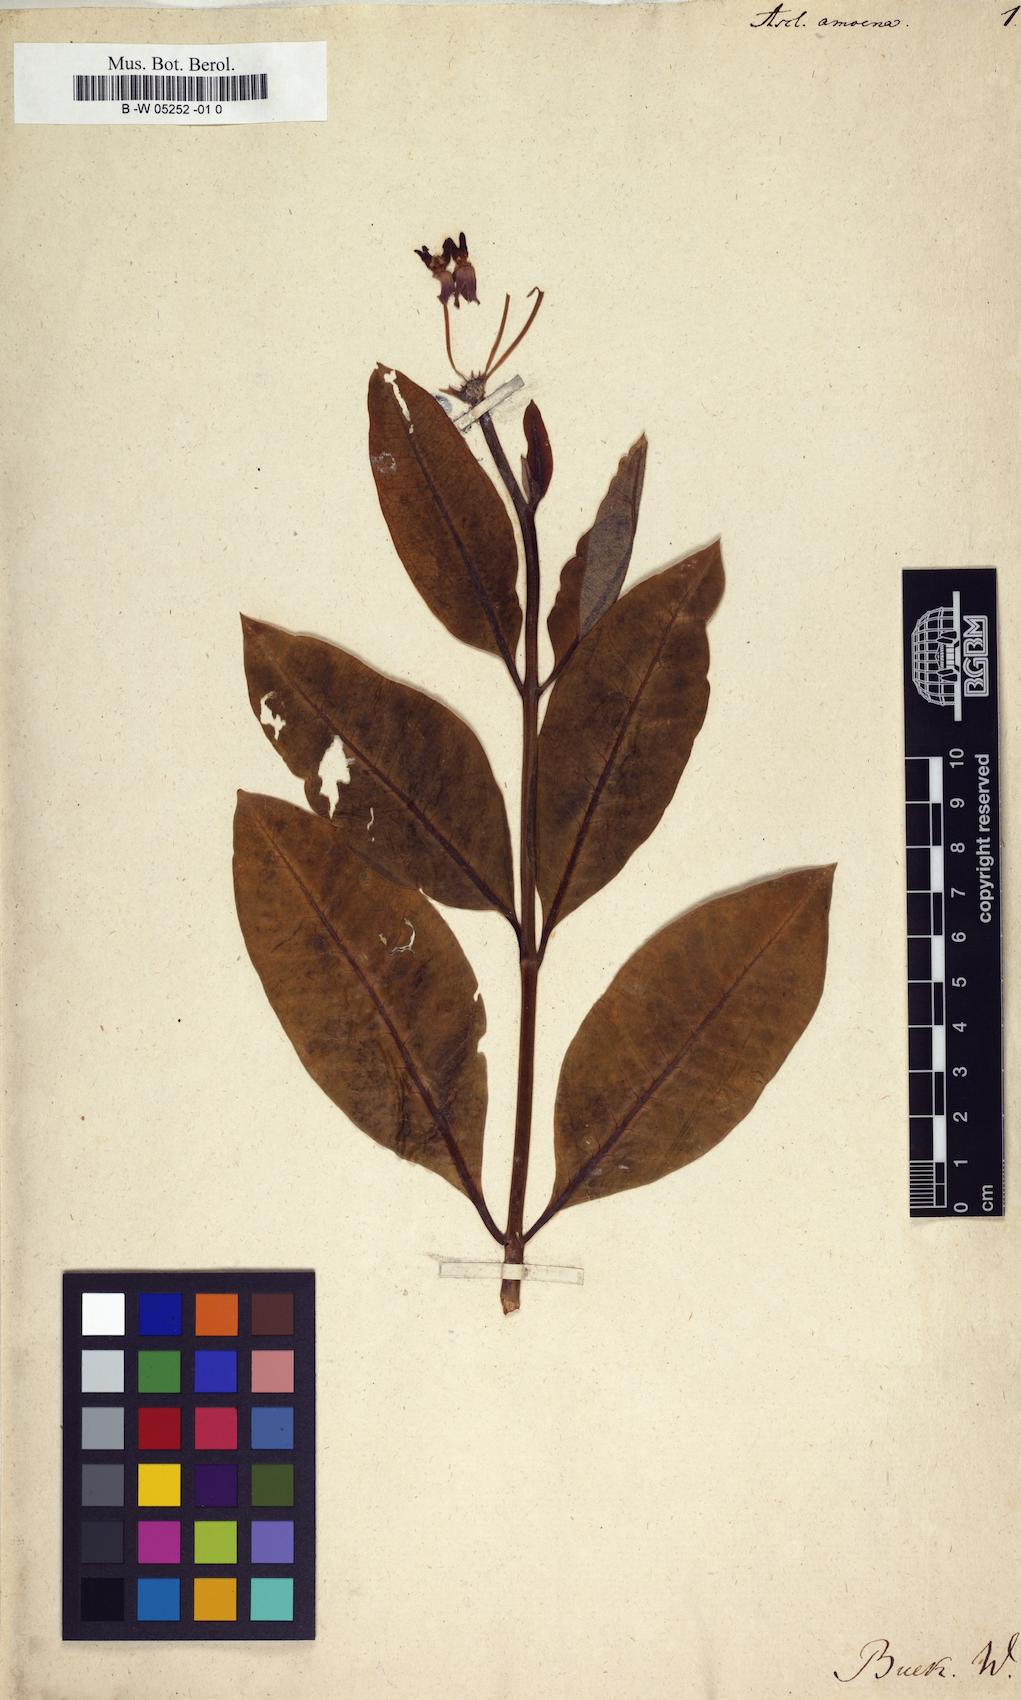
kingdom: Plantae
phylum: Tracheophyta
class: Magnoliopsida
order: Gentianales
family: Apocynaceae
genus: Asclepias
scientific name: Asclepias purpurascens
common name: Purple milkweed
